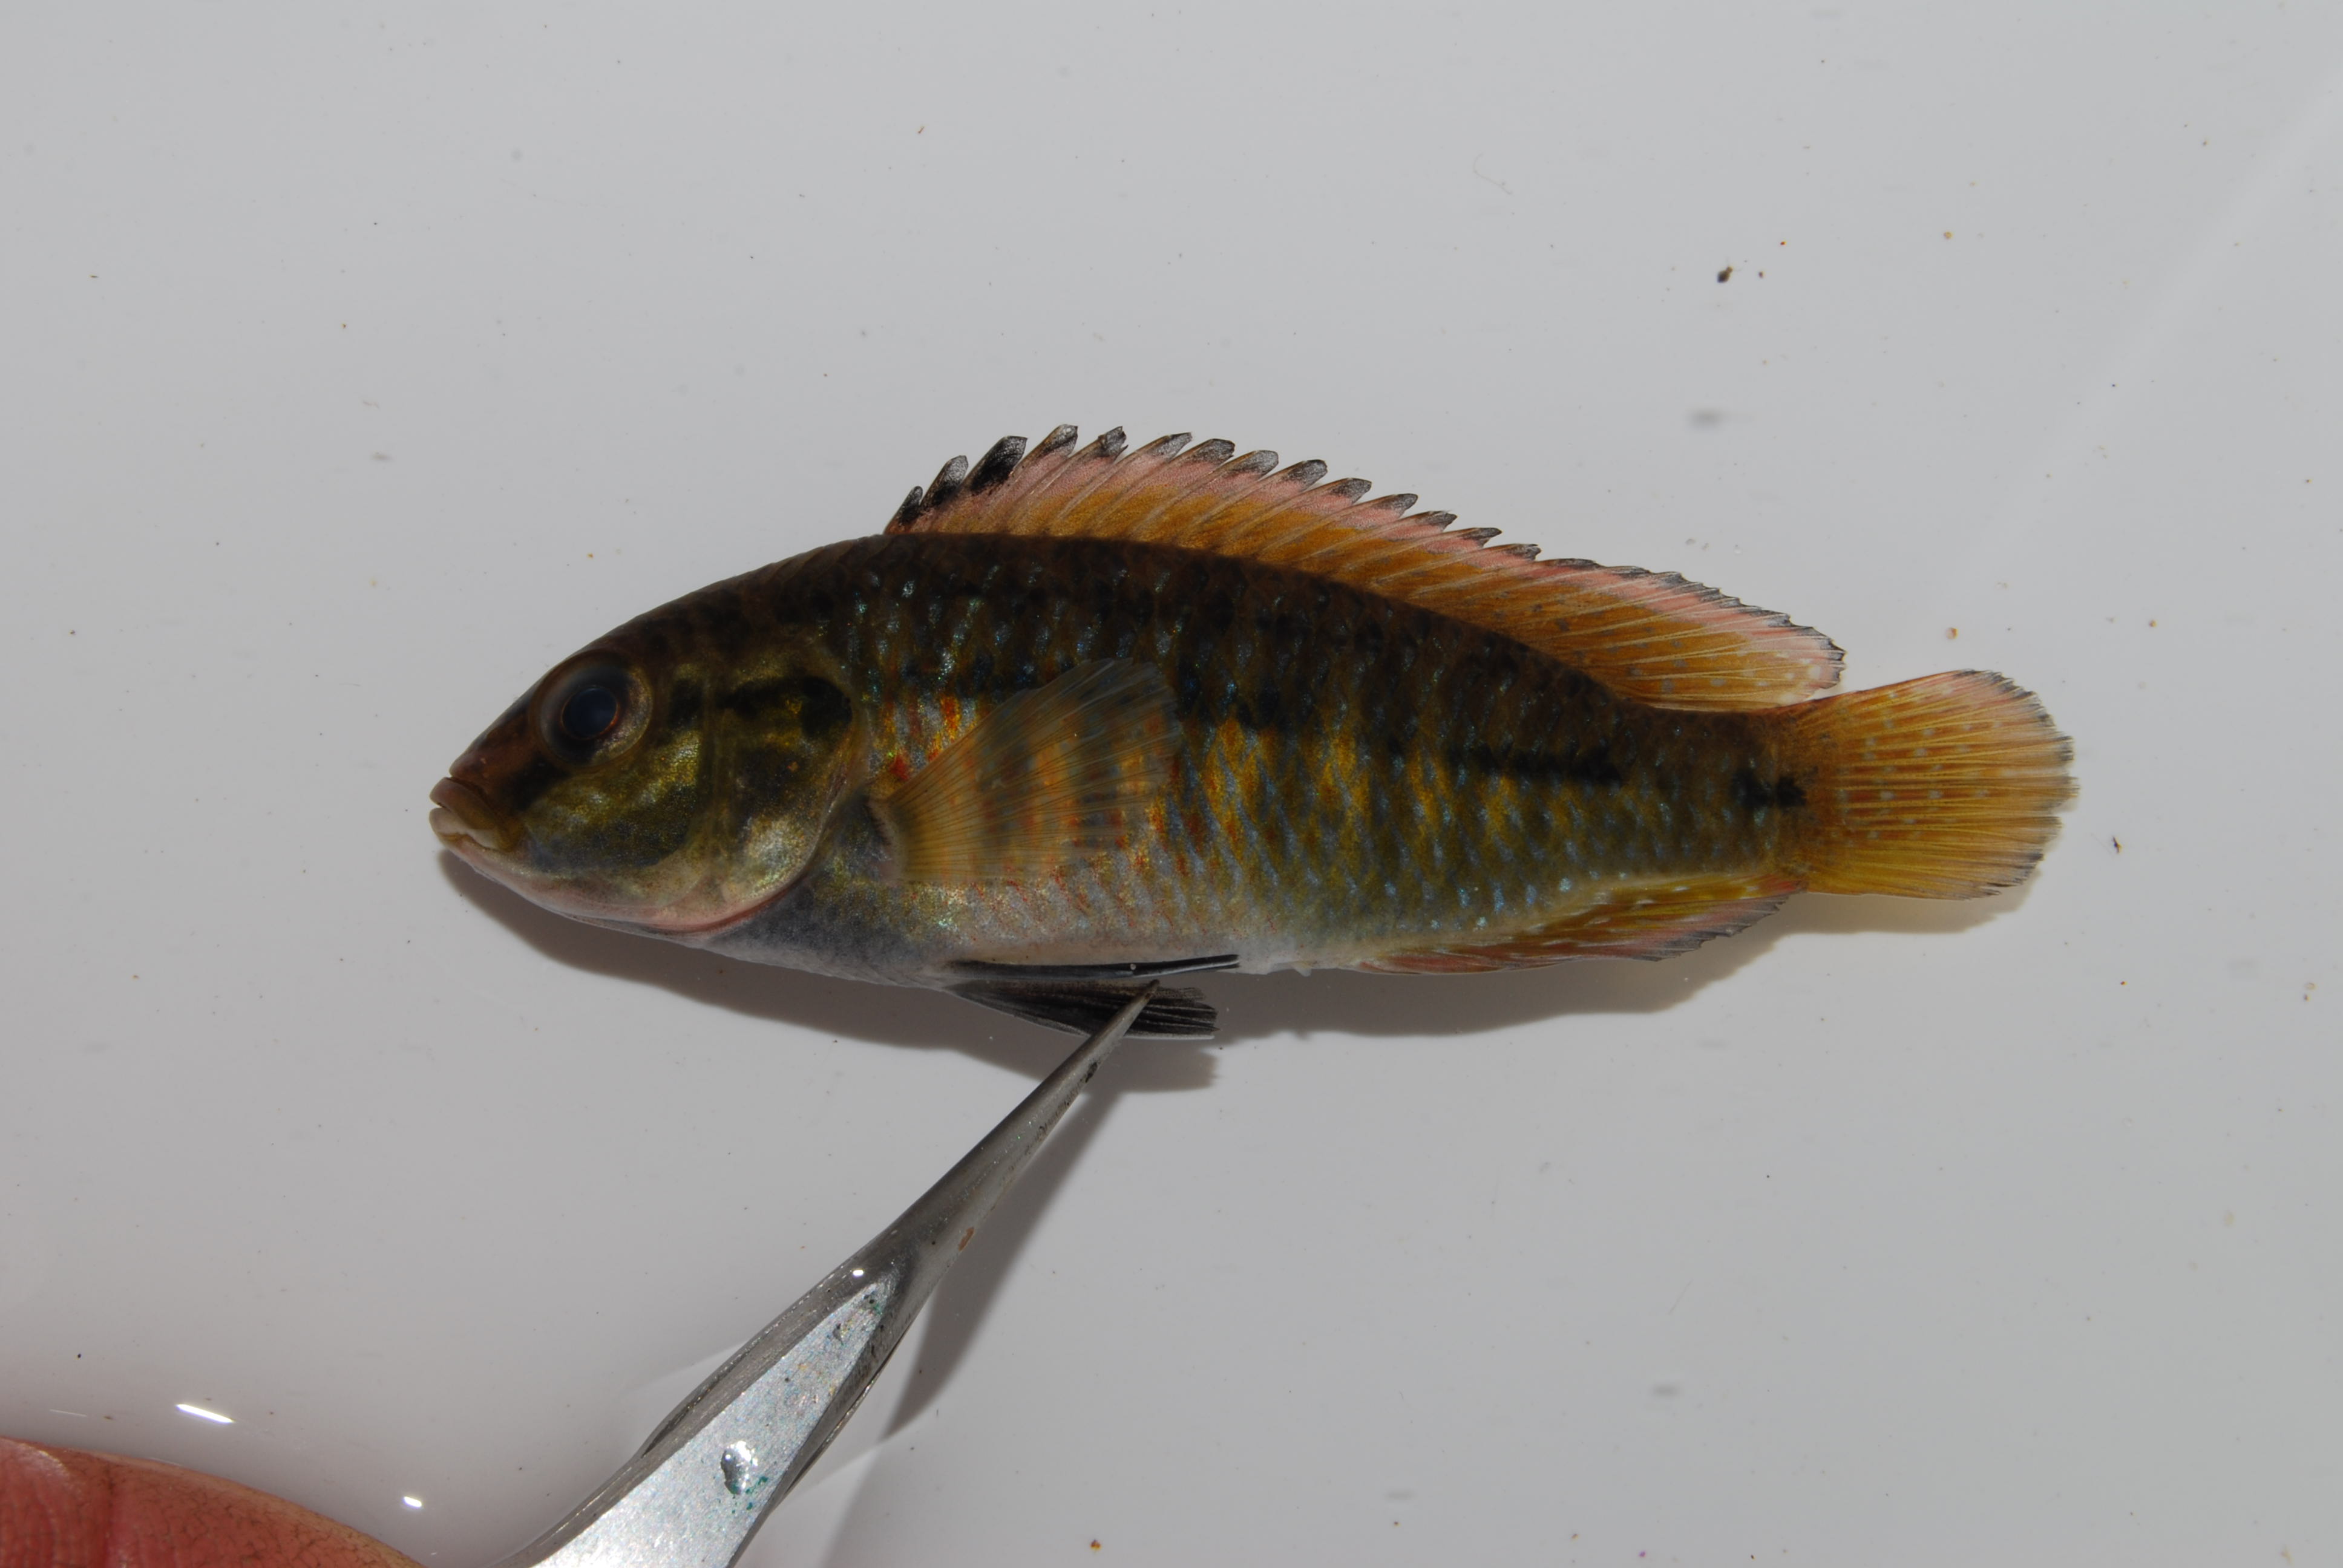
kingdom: Animalia
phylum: Chordata
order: Osteoglossiformes
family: Mormyridae
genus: Petrocephalus
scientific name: Petrocephalus
